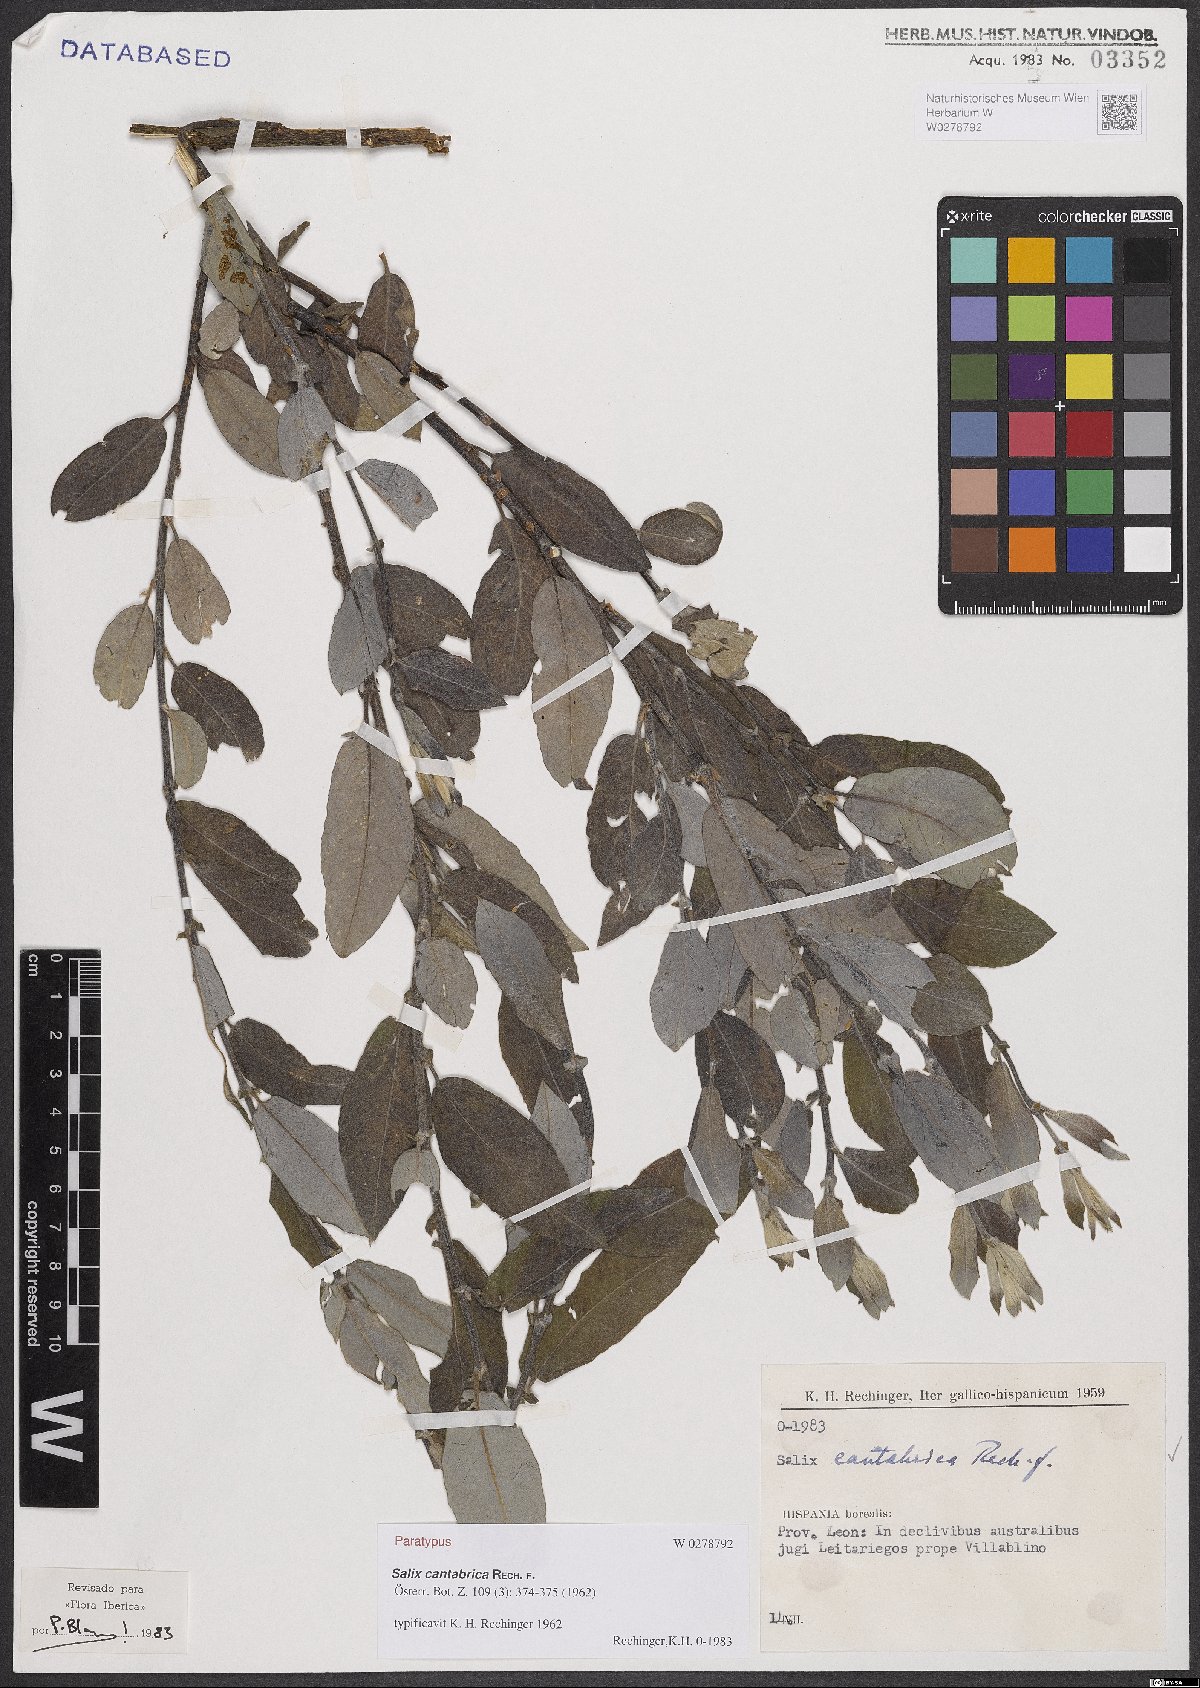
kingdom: Plantae
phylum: Tracheophyta
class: Magnoliopsida
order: Malpighiales
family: Salicaceae
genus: Salix
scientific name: Salix cantabrica
